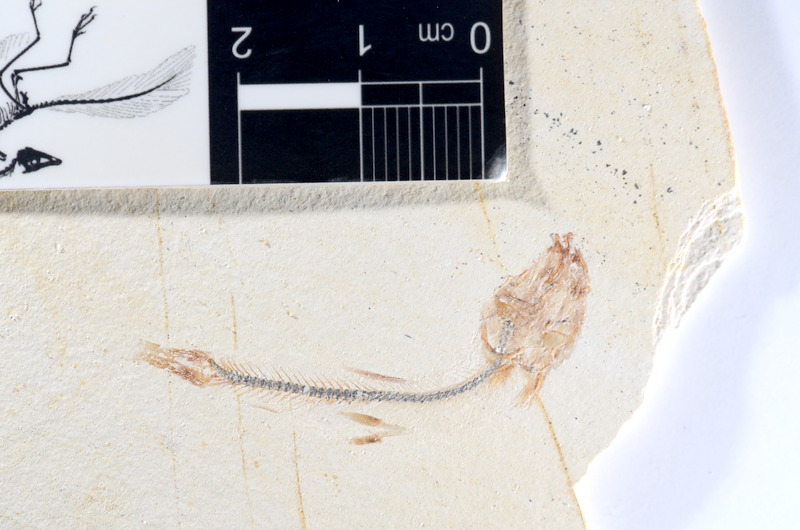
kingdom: Animalia
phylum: Chordata
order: Salmoniformes
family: Orthogonikleithridae
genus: Orthogonikleithrus
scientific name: Orthogonikleithrus hoelli
